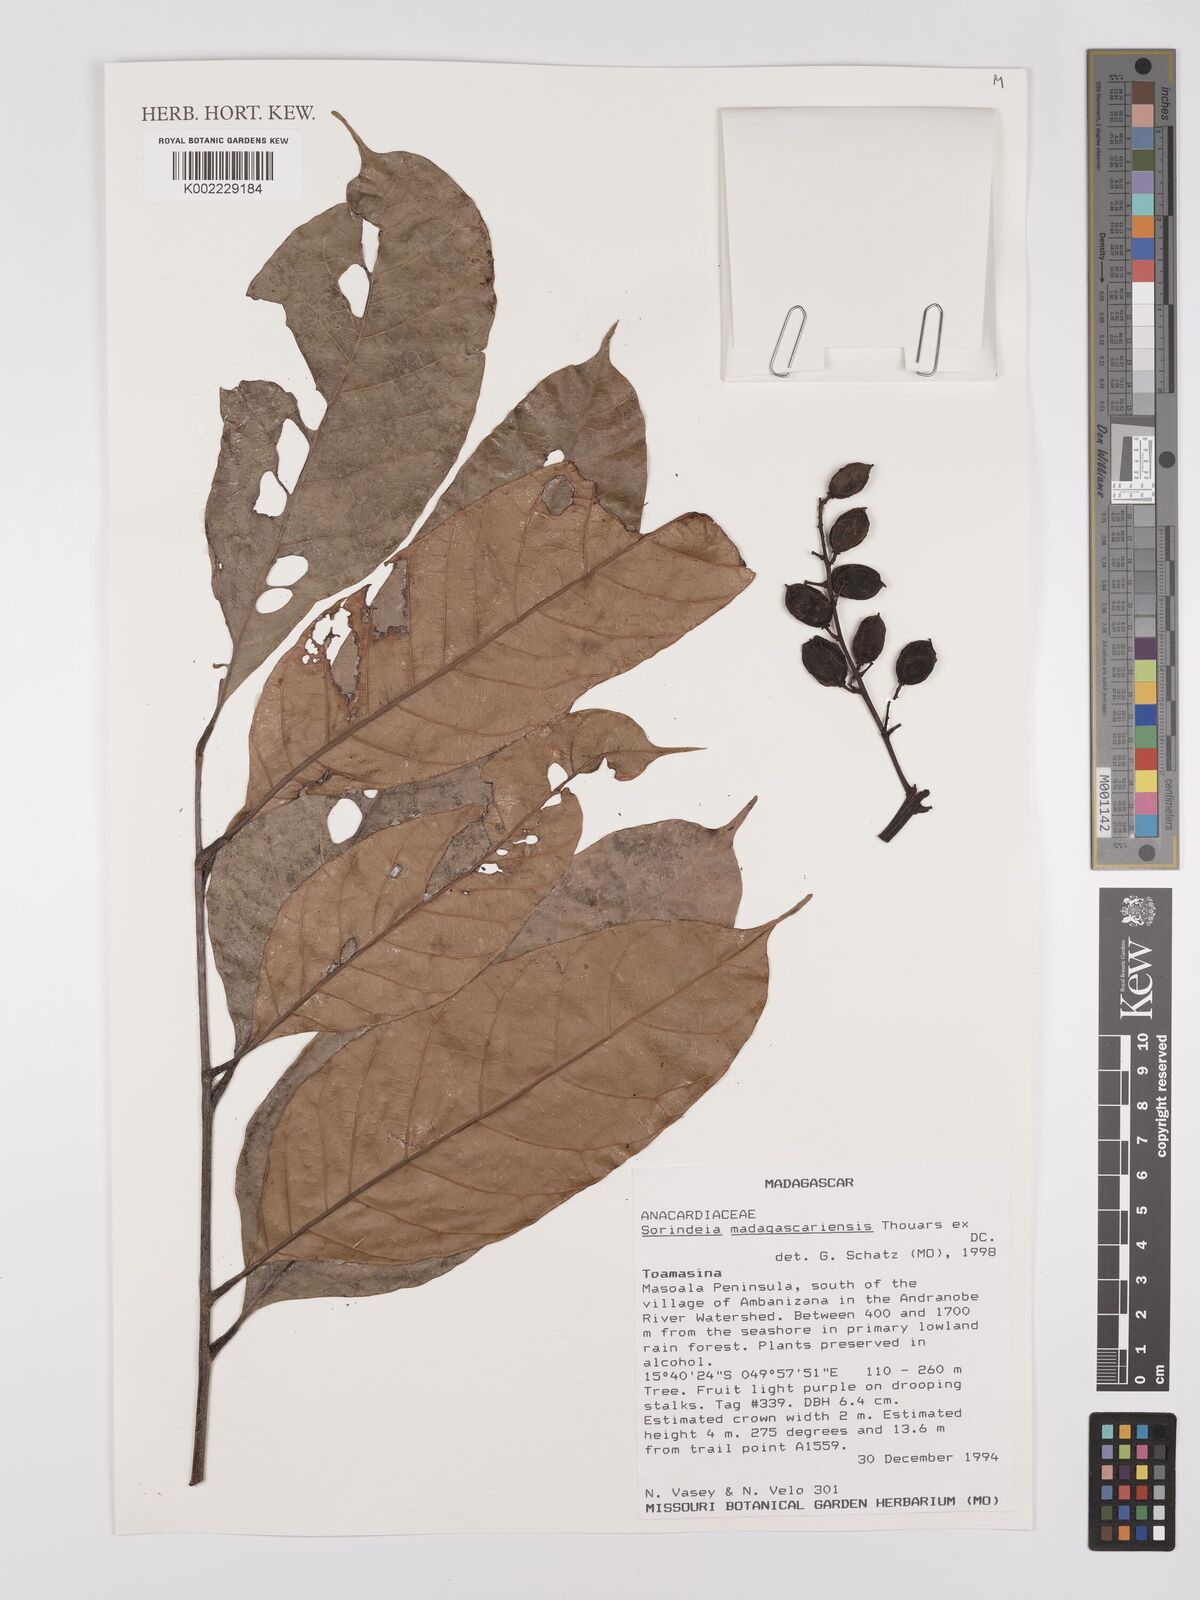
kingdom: Plantae
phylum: Tracheophyta
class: Magnoliopsida
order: Sapindales
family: Anacardiaceae
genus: Sorindeia
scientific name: Sorindeia madagascariensis
